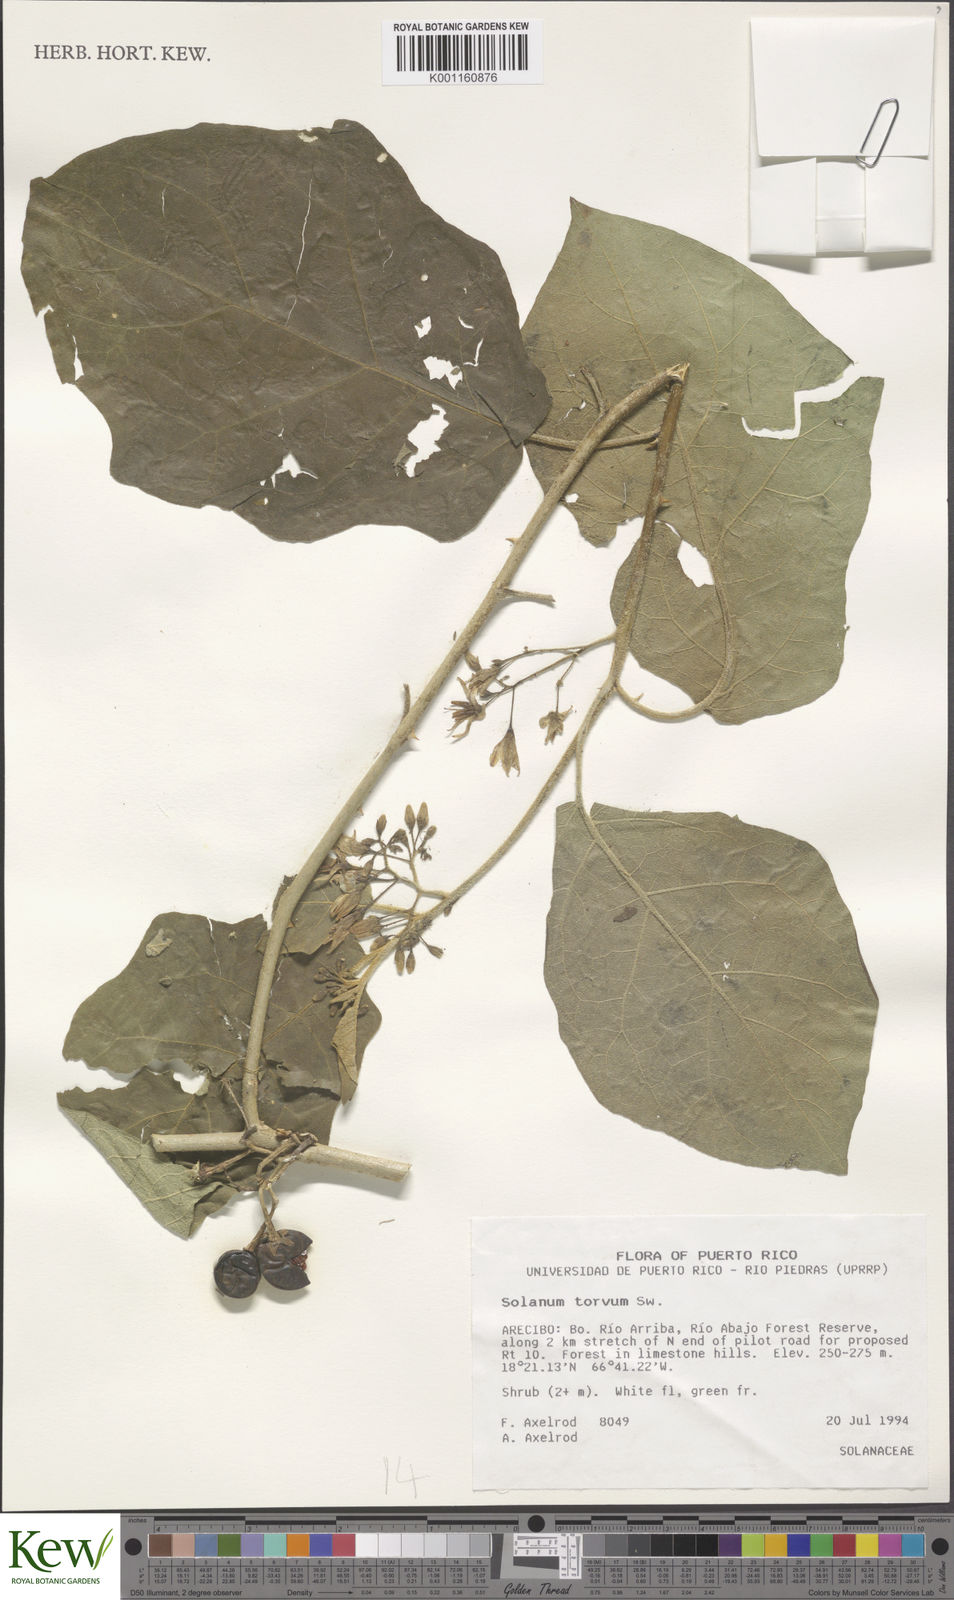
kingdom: Plantae
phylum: Tracheophyta
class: Magnoliopsida
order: Solanales
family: Solanaceae
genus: Solanum
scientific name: Solanum torvum
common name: Turkey berry
